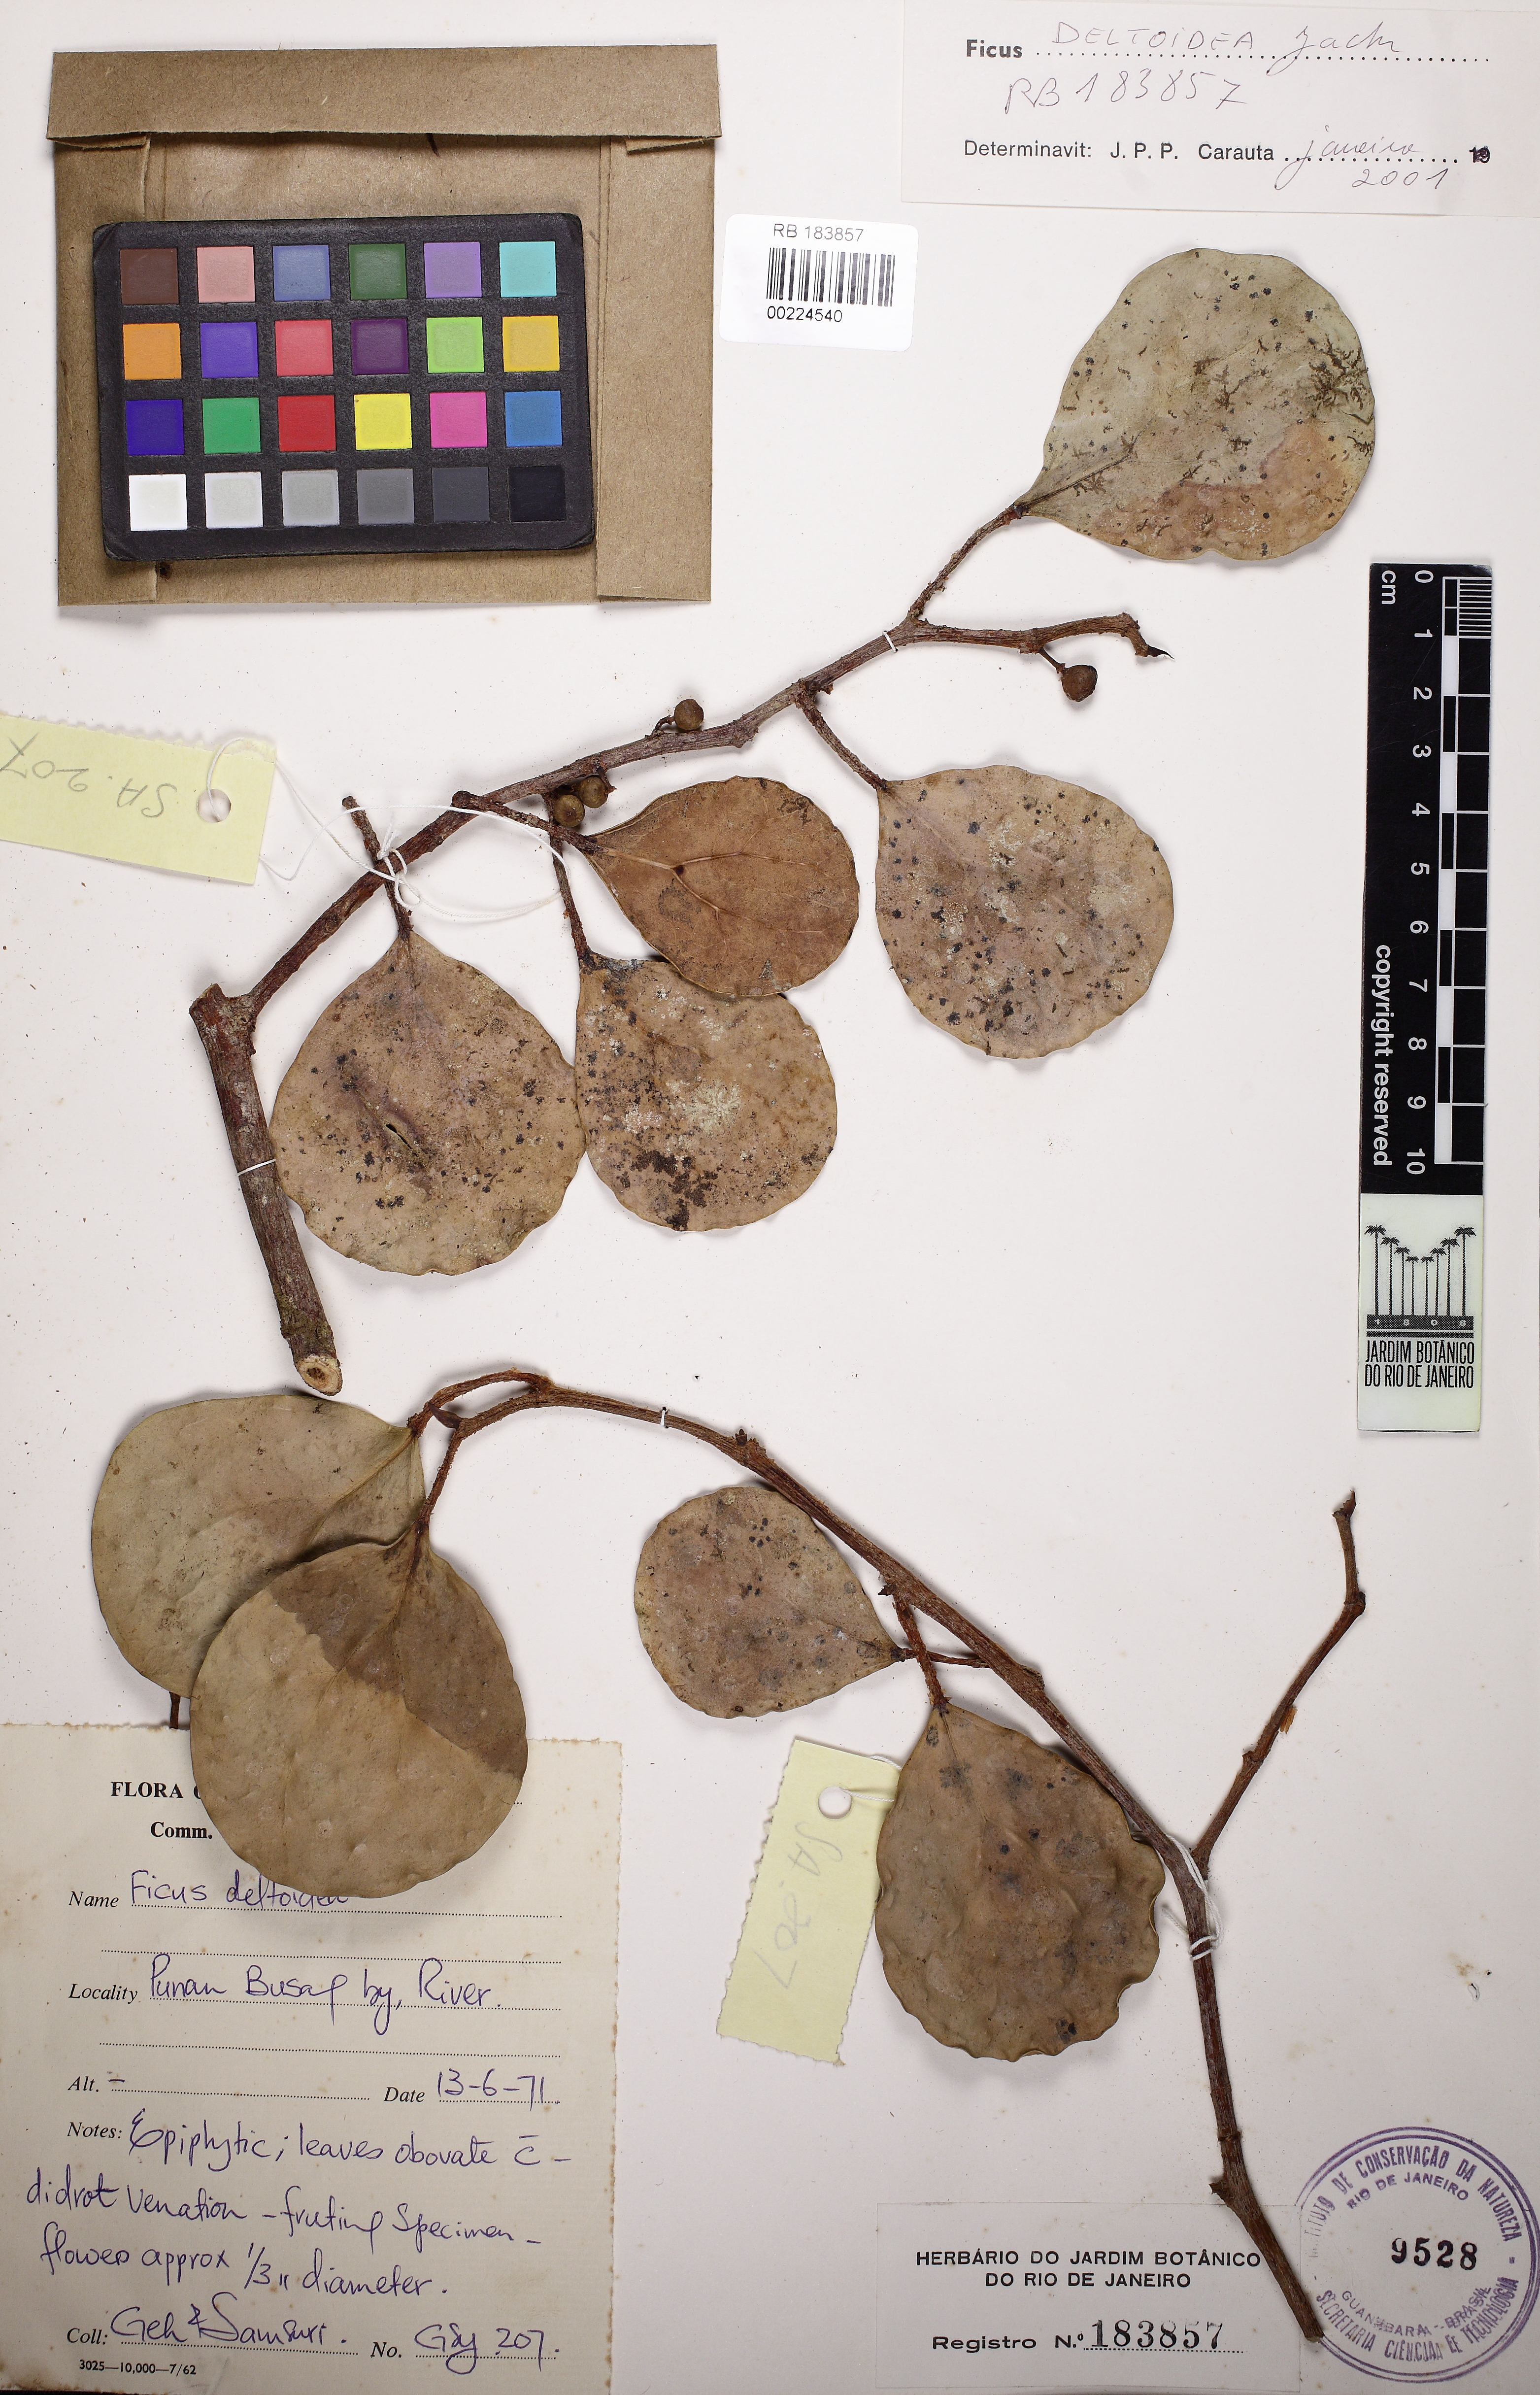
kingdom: Plantae
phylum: Tracheophyta
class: Magnoliopsida
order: Rosales
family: Moraceae
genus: Ficus
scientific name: Ficus deltoidea
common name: Mistletoe fig
